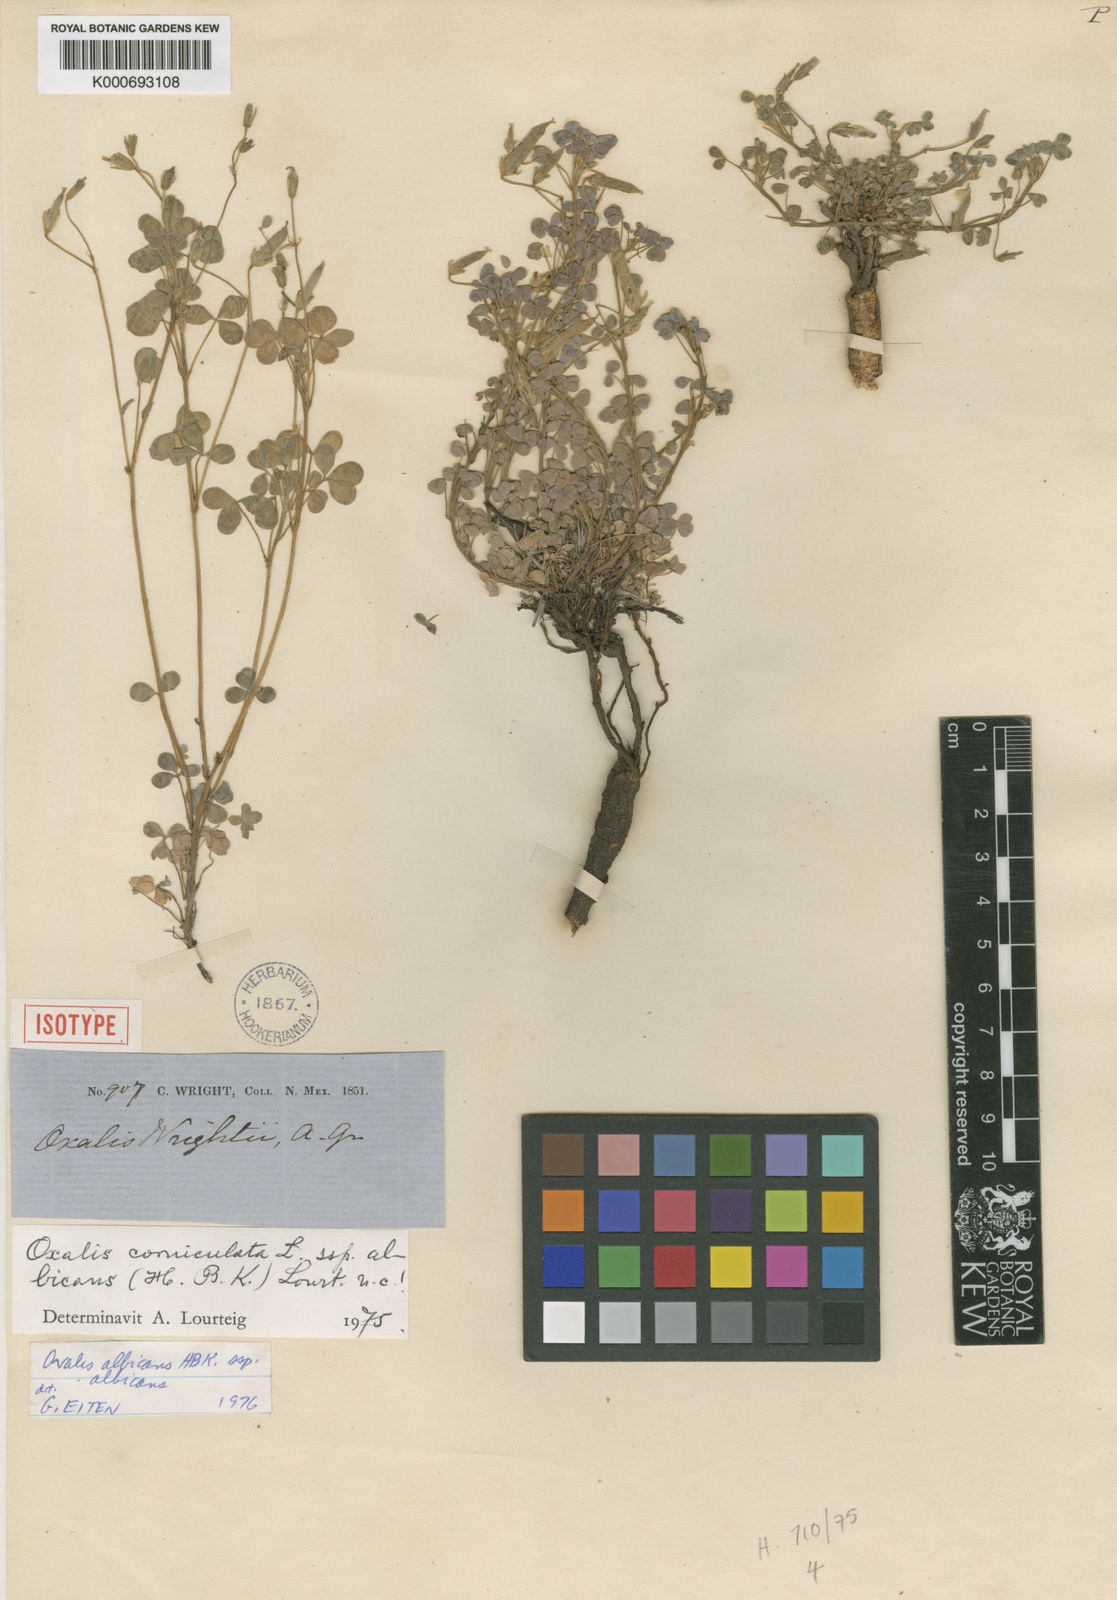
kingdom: Plantae
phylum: Tracheophyta
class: Magnoliopsida
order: Oxalidales
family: Oxalidaceae
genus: Oxalis
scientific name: Oxalis albicans
